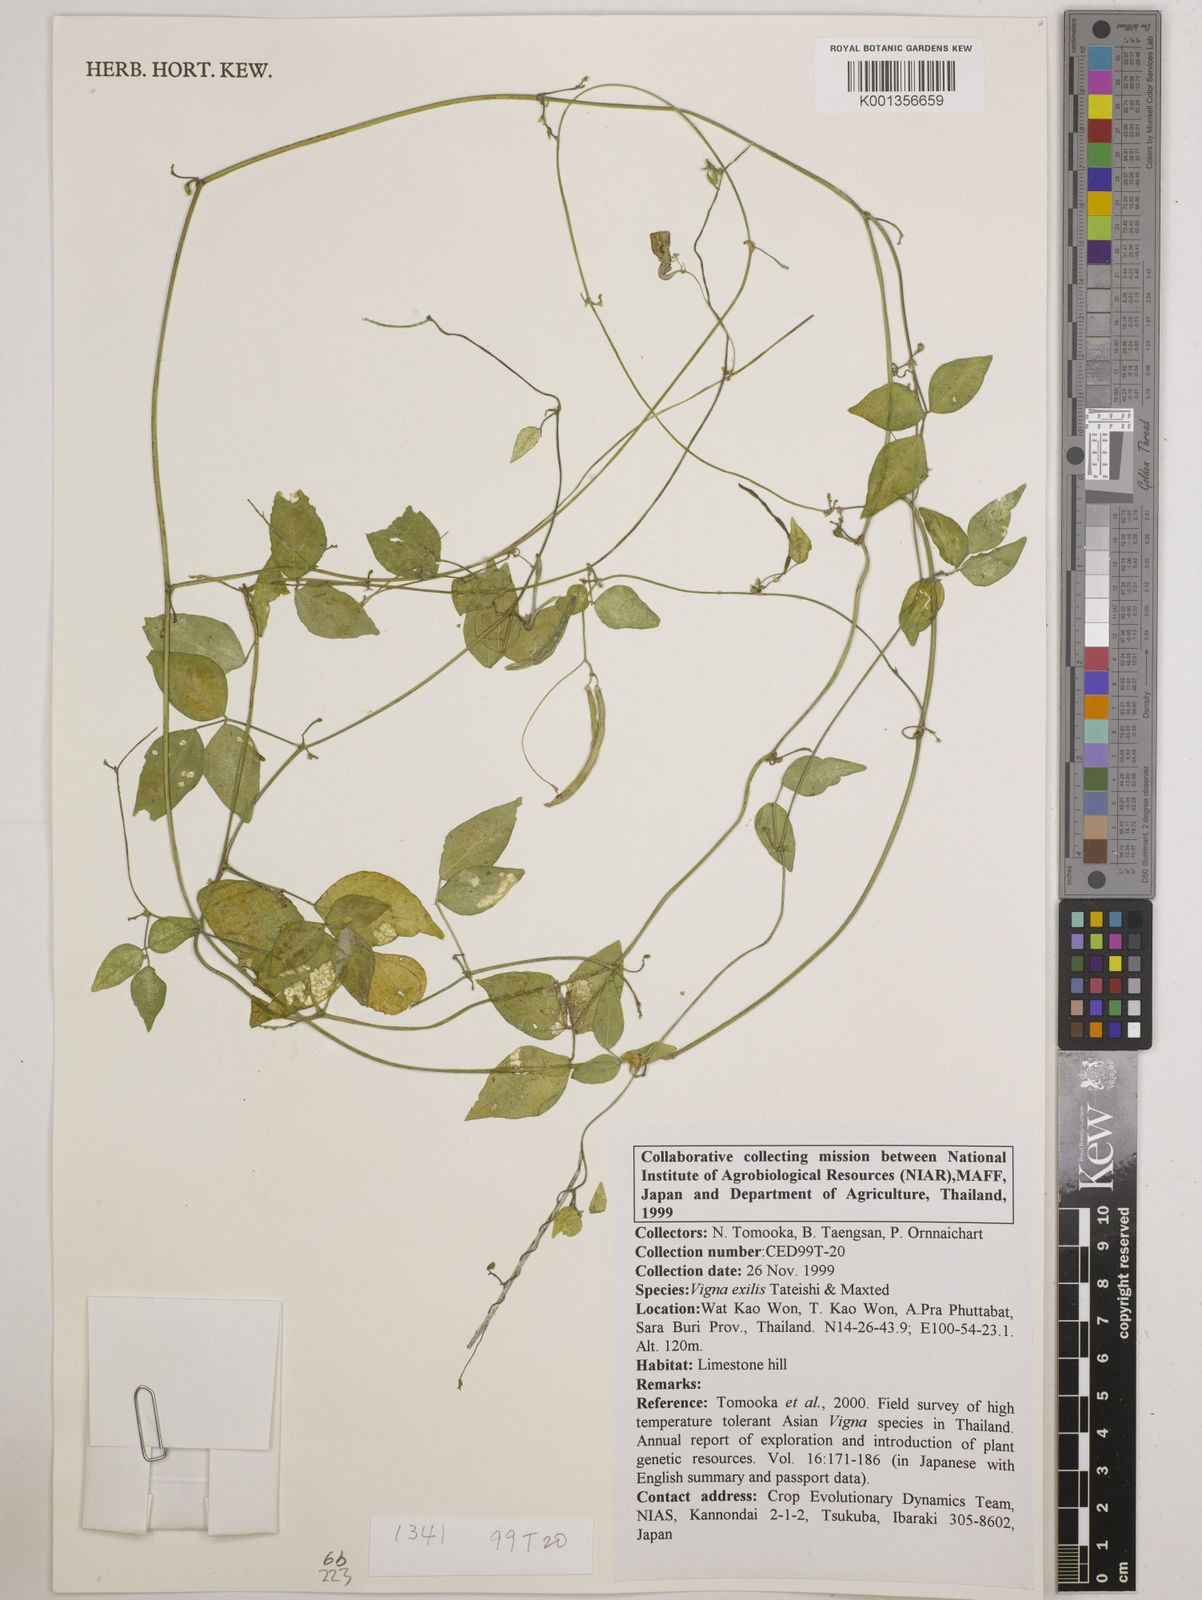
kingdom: Plantae
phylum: Tracheophyta
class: Magnoliopsida
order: Fabales
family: Fabaceae
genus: Vigna
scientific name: Vigna
